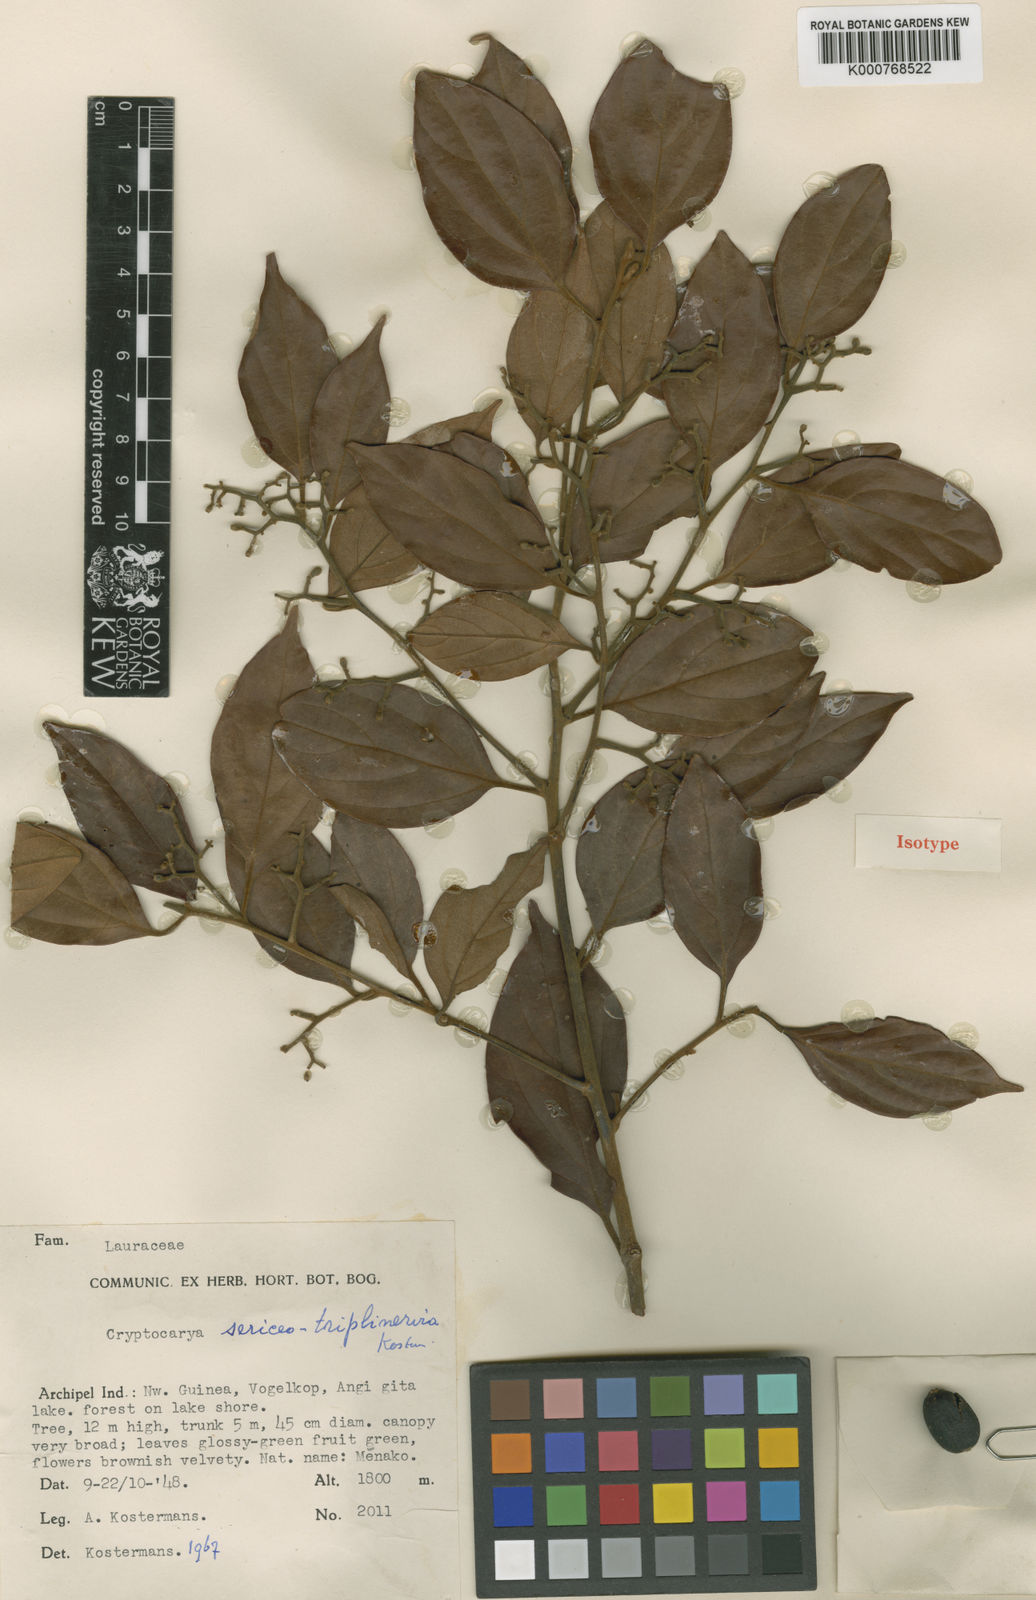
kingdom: Plantae
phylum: Tracheophyta
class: Magnoliopsida
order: Laurales
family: Lauraceae
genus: Cryptocarya
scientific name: Cryptocarya sericeotriplinervia
